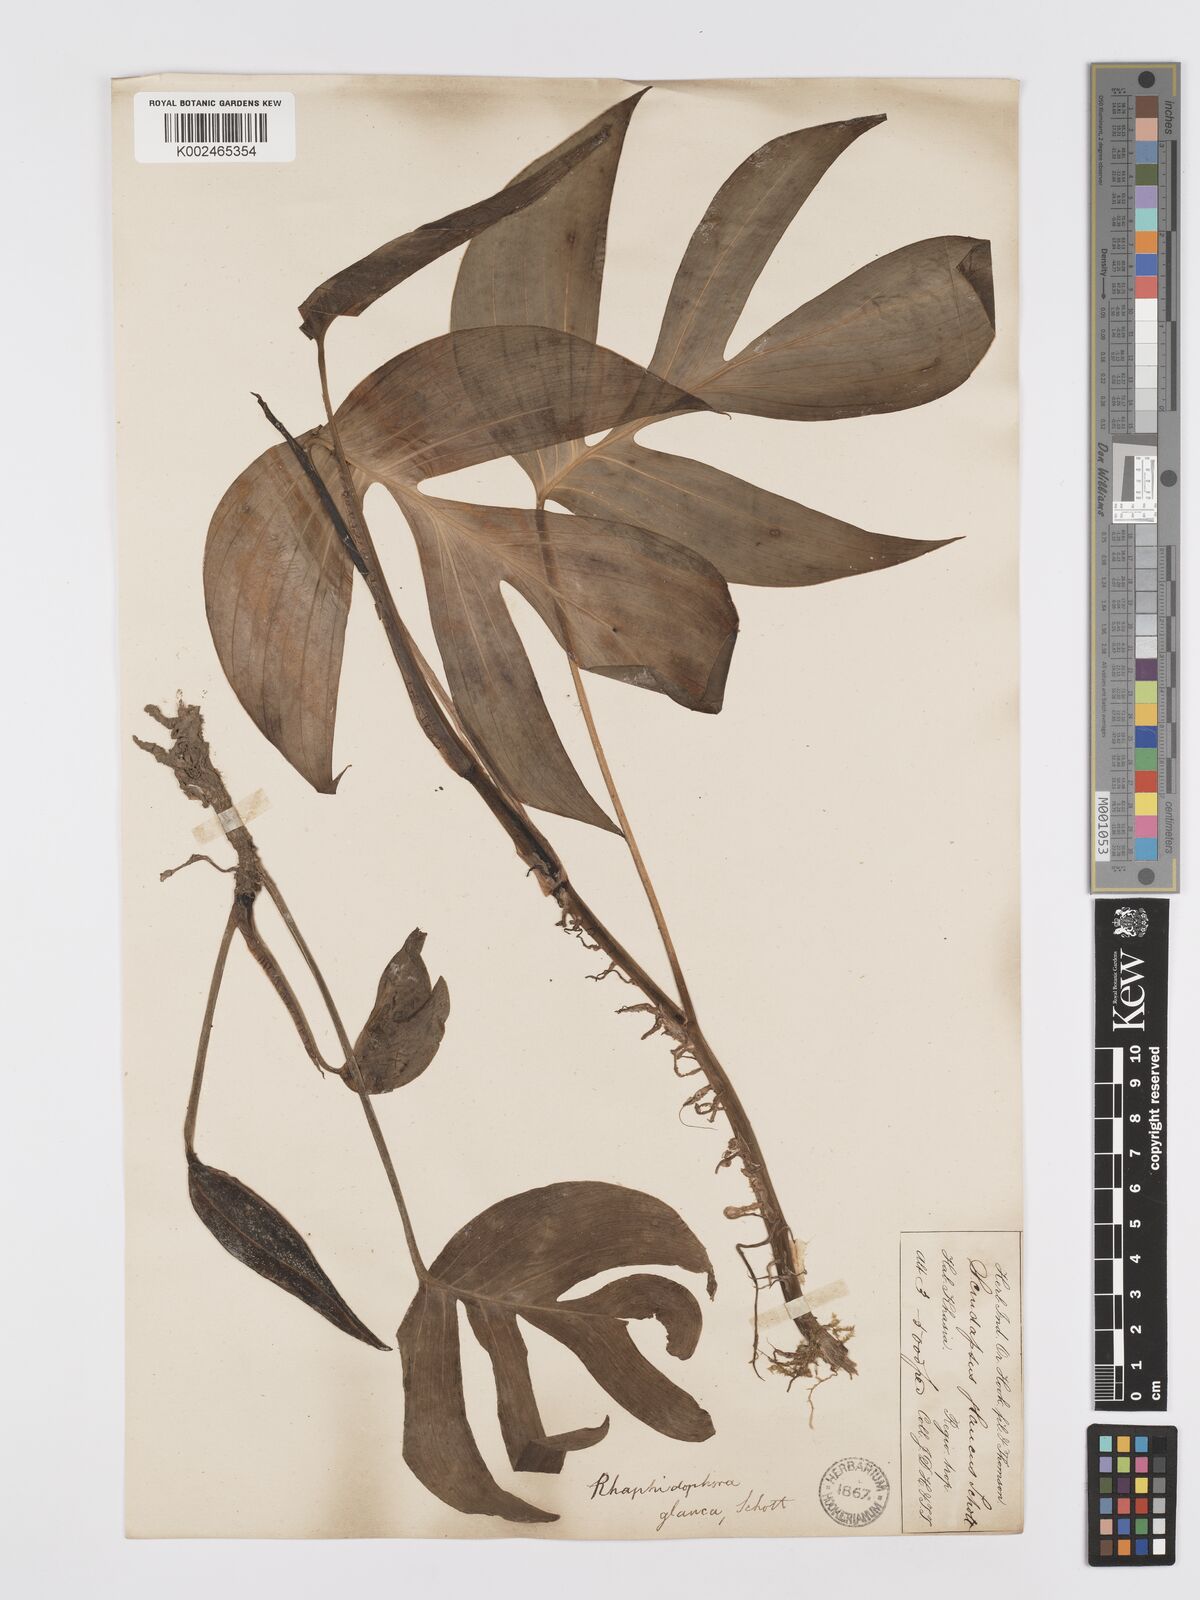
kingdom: Plantae
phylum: Tracheophyta
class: Liliopsida
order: Alismatales
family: Araceae
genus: Rhaphidophora
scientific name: Rhaphidophora glauca
